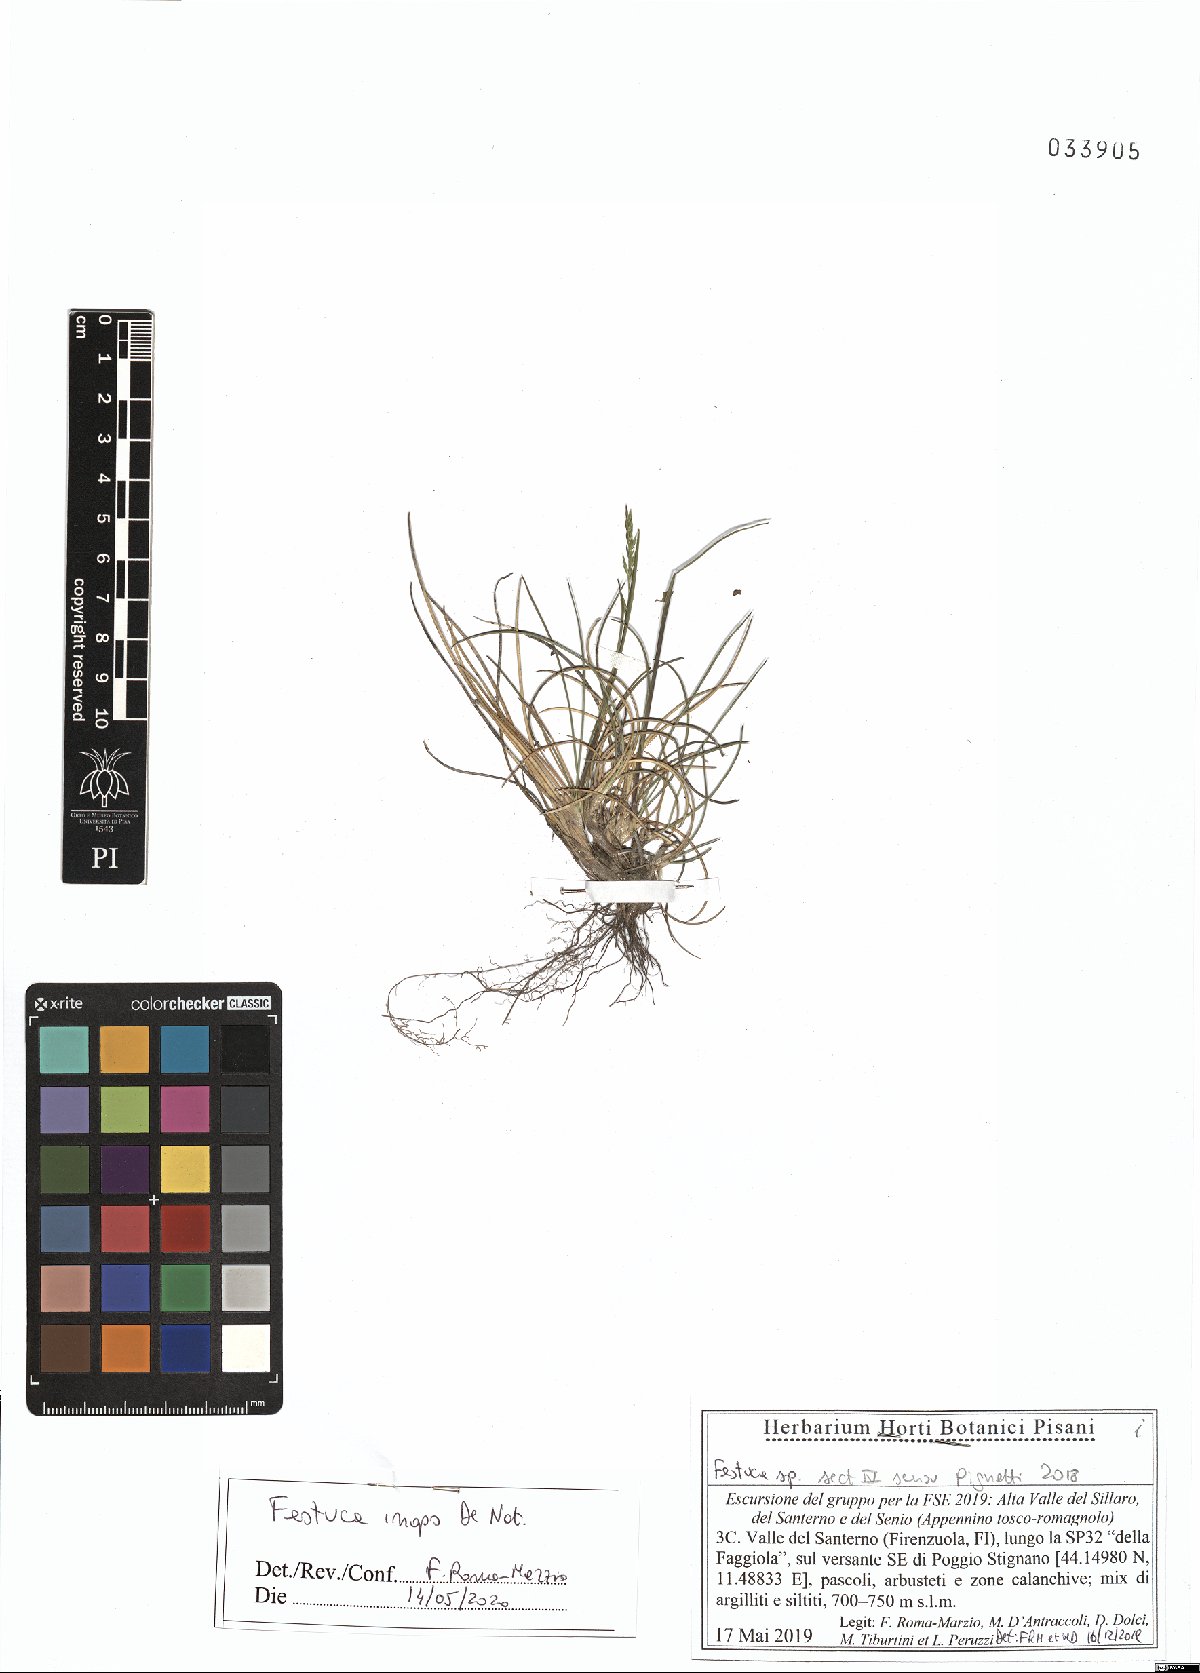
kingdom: Plantae
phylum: Tracheophyta
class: Liliopsida
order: Poales
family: Poaceae
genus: Festuca
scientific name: Festuca inops
